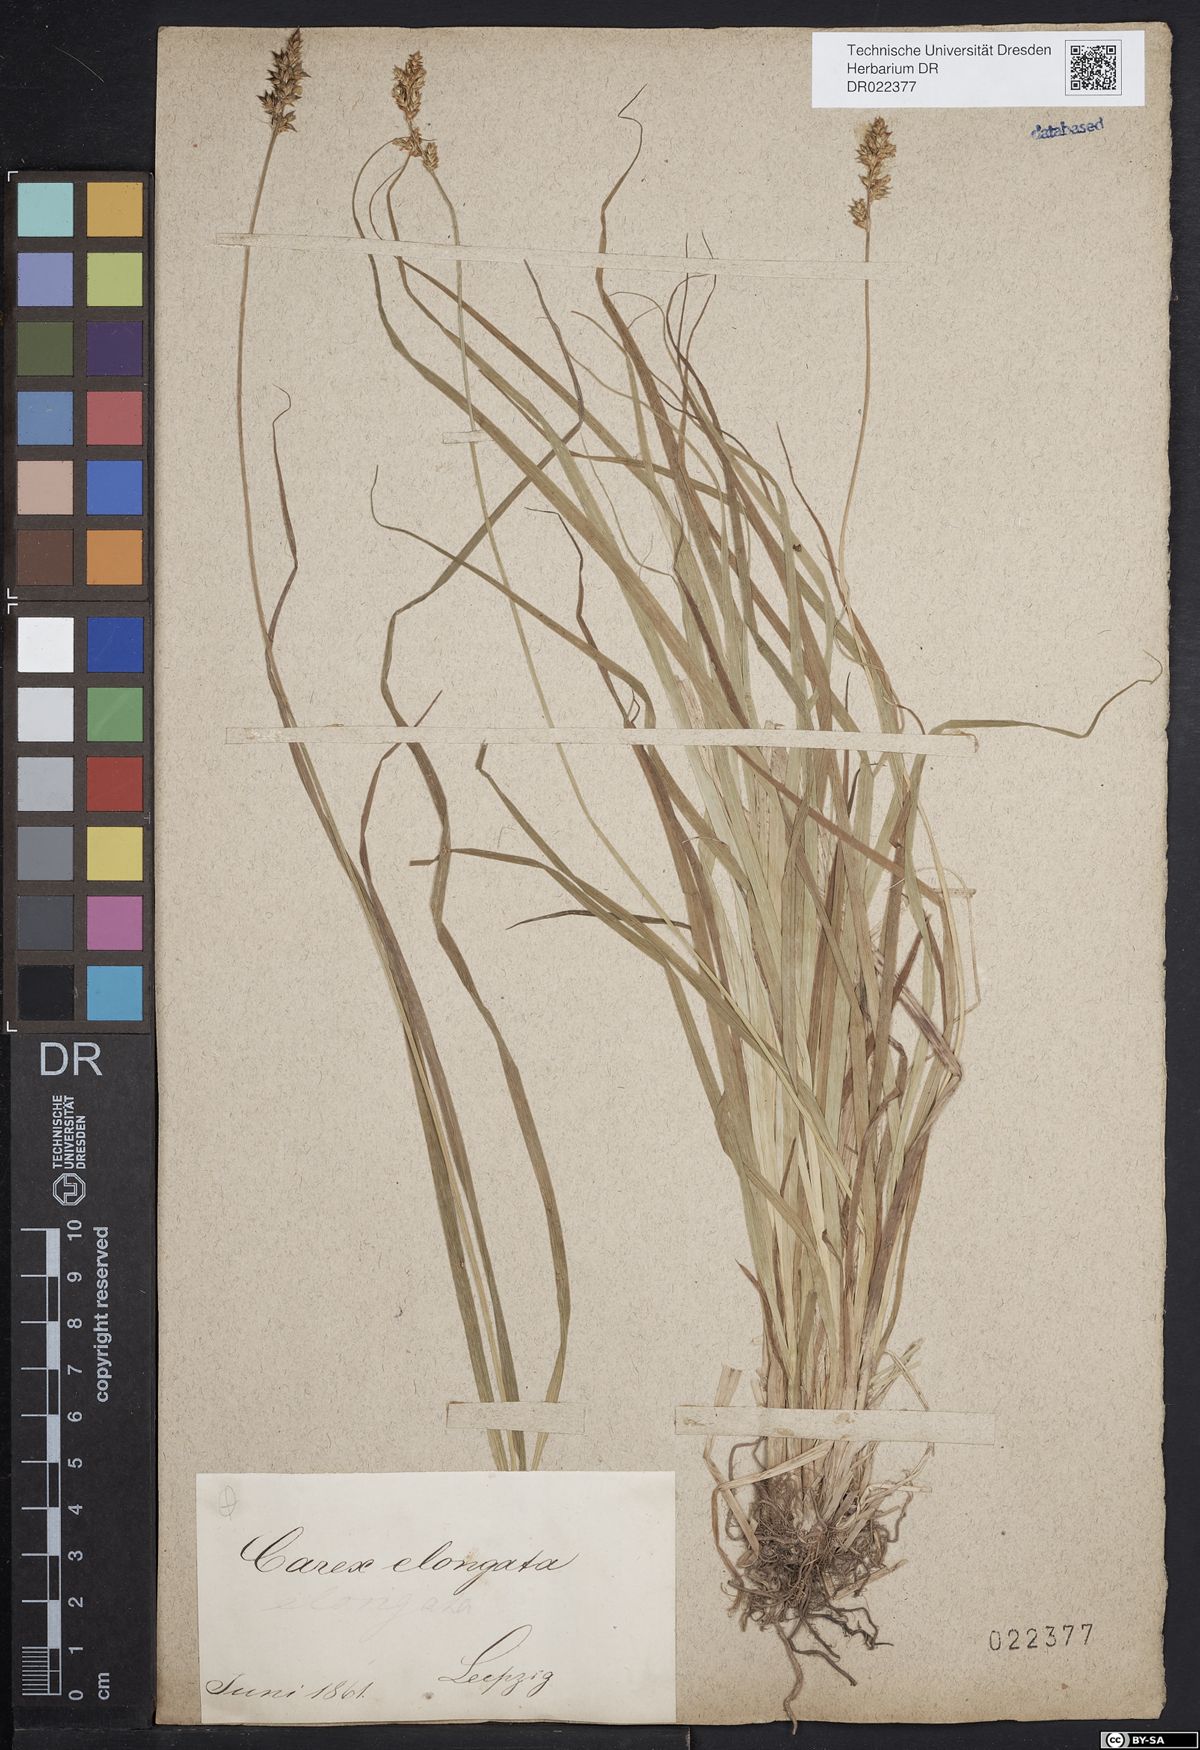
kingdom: Plantae
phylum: Tracheophyta
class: Liliopsida
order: Poales
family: Cyperaceae
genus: Carex
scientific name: Carex elongata
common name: Elongated sedge
